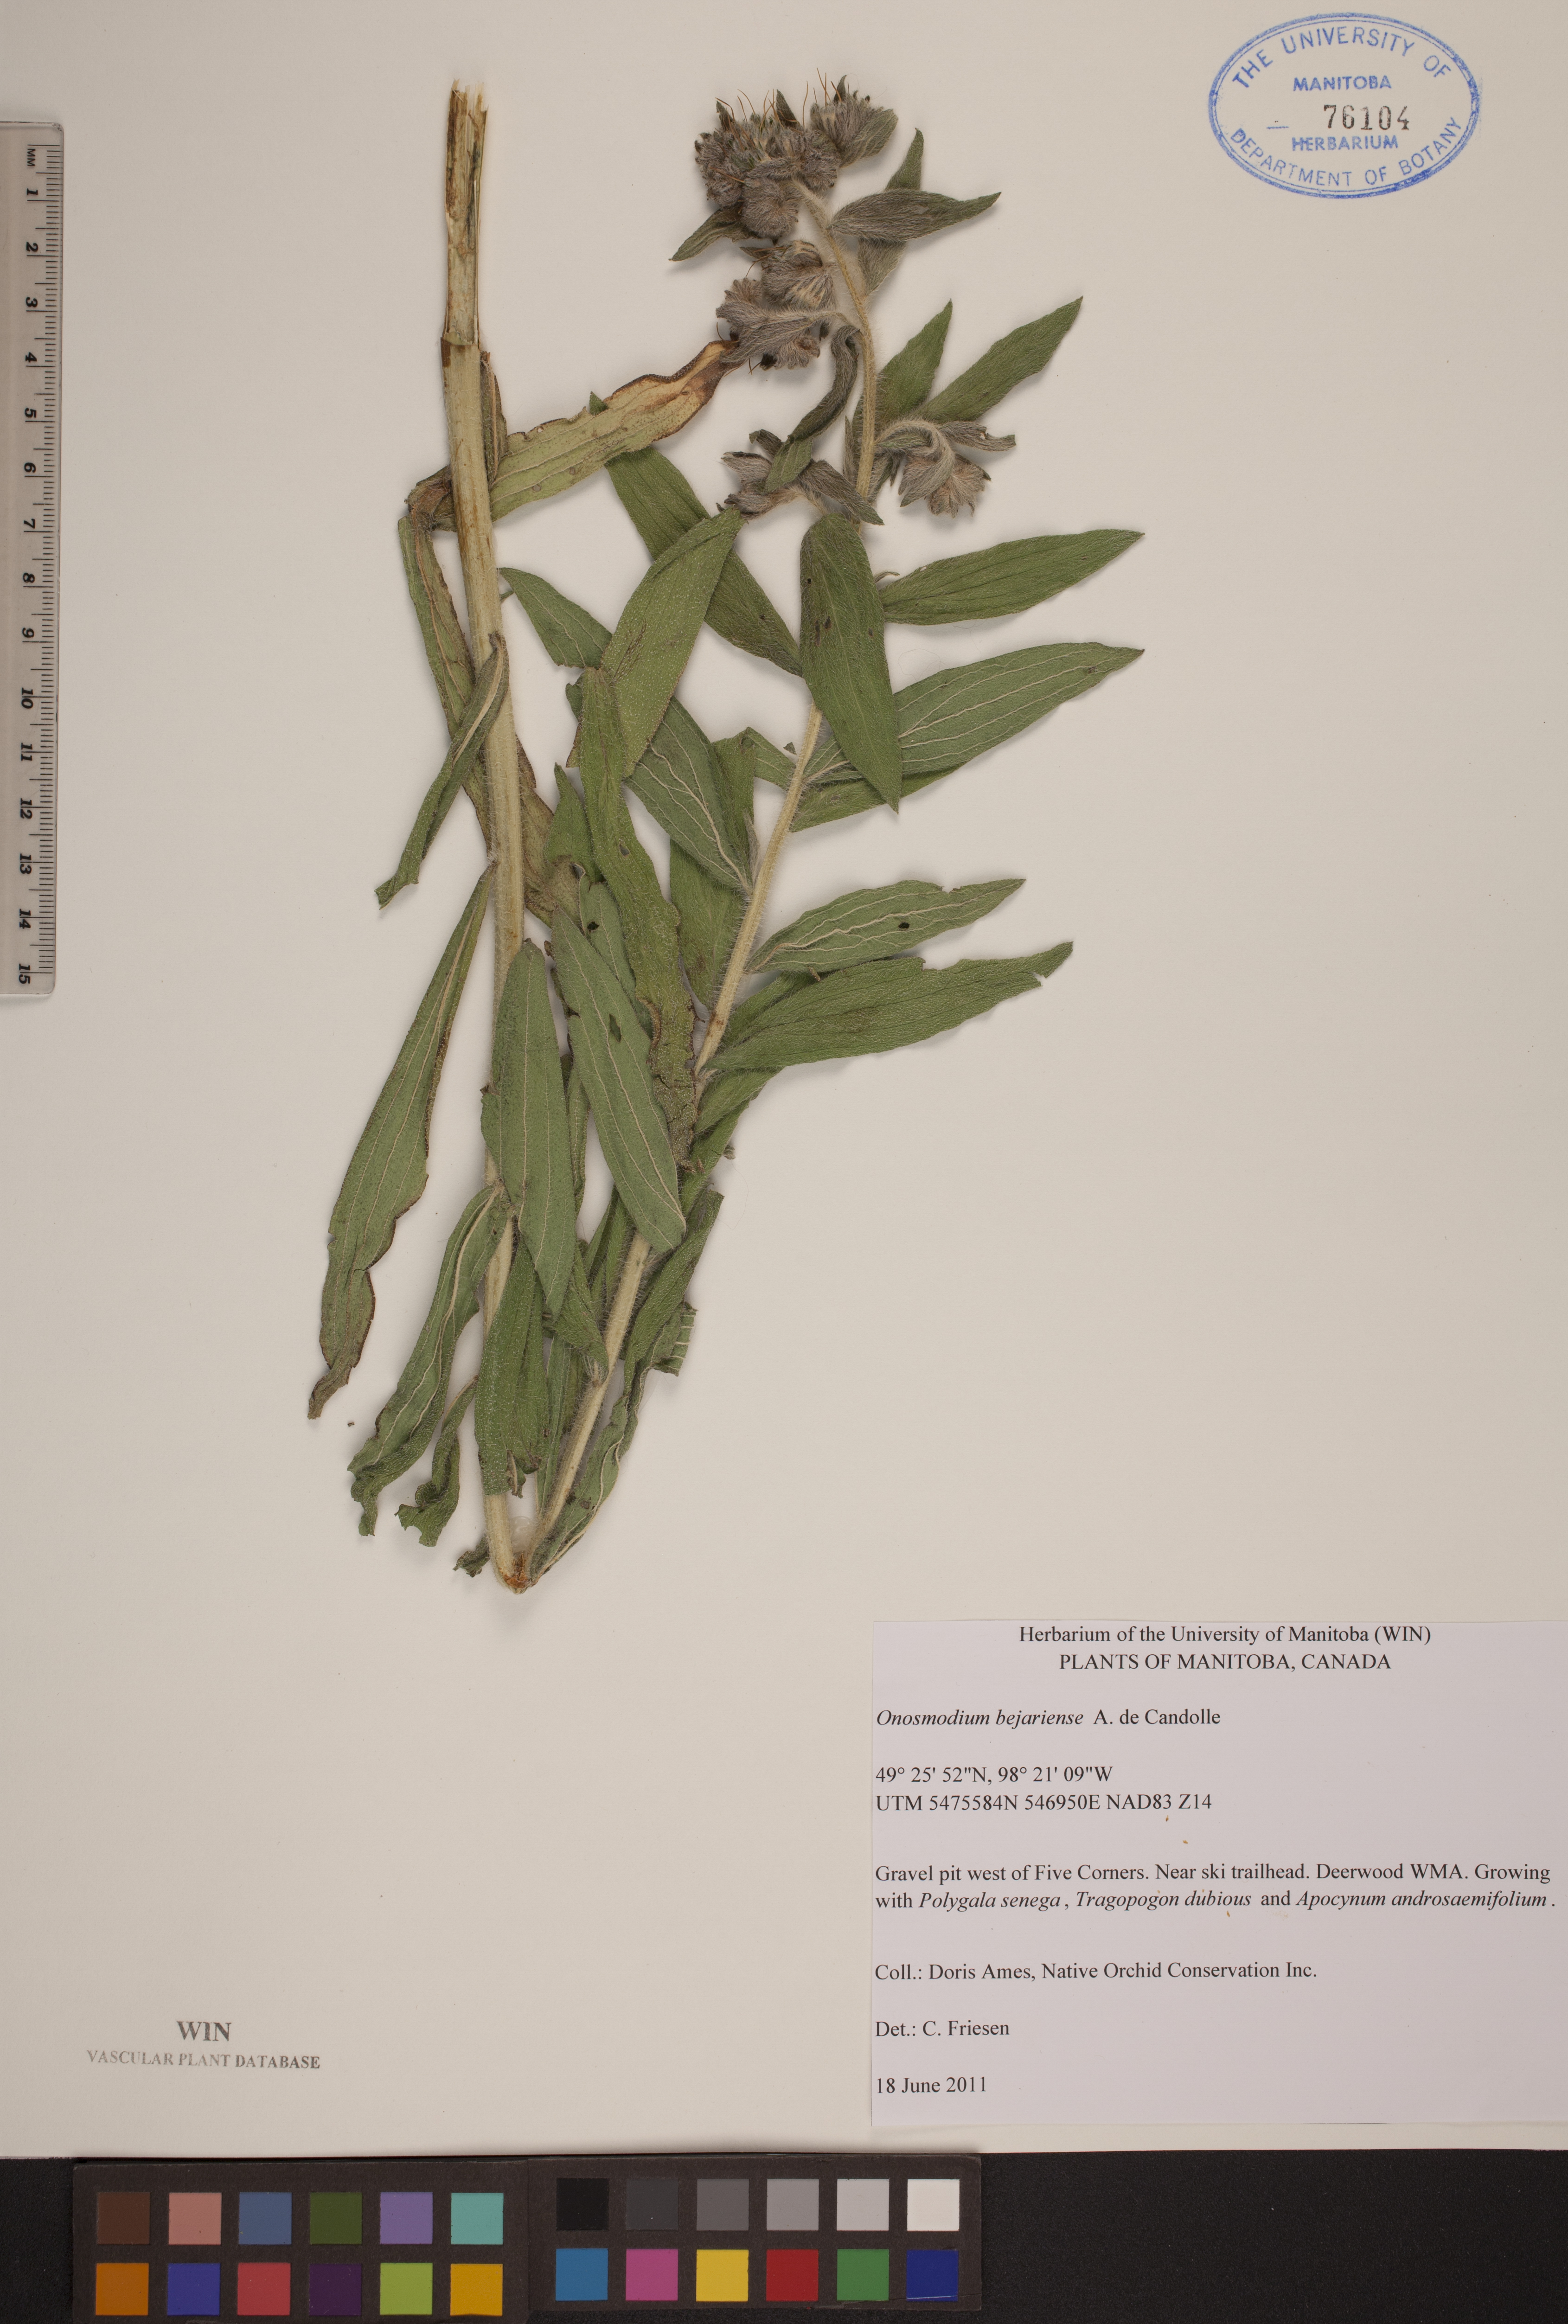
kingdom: Plantae
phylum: Tracheophyta
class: Magnoliopsida
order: Boraginales
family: Boraginaceae
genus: Lithospermum
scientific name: Lithospermum occidentale
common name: Western false gromwell
